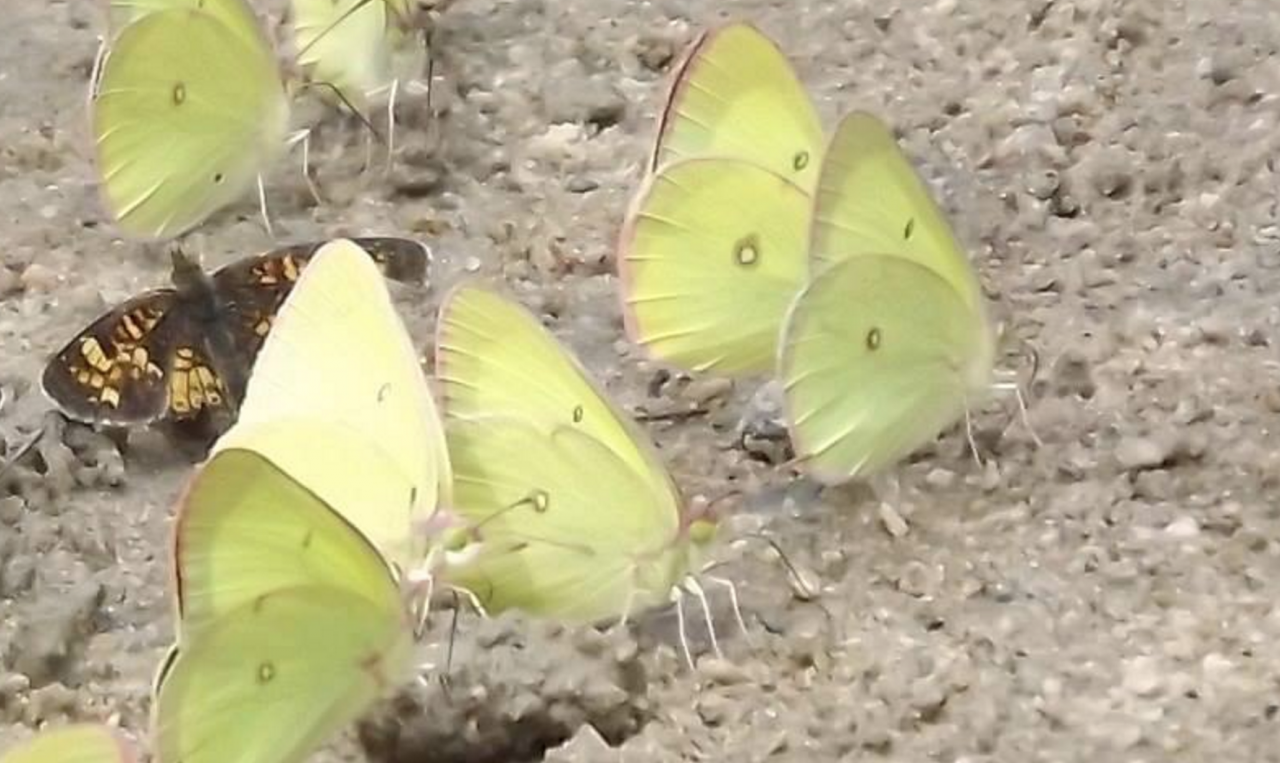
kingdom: Animalia
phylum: Arthropoda
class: Insecta
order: Lepidoptera
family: Pieridae
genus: Colias
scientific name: Colias interior
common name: Pink-edged Sulphur
